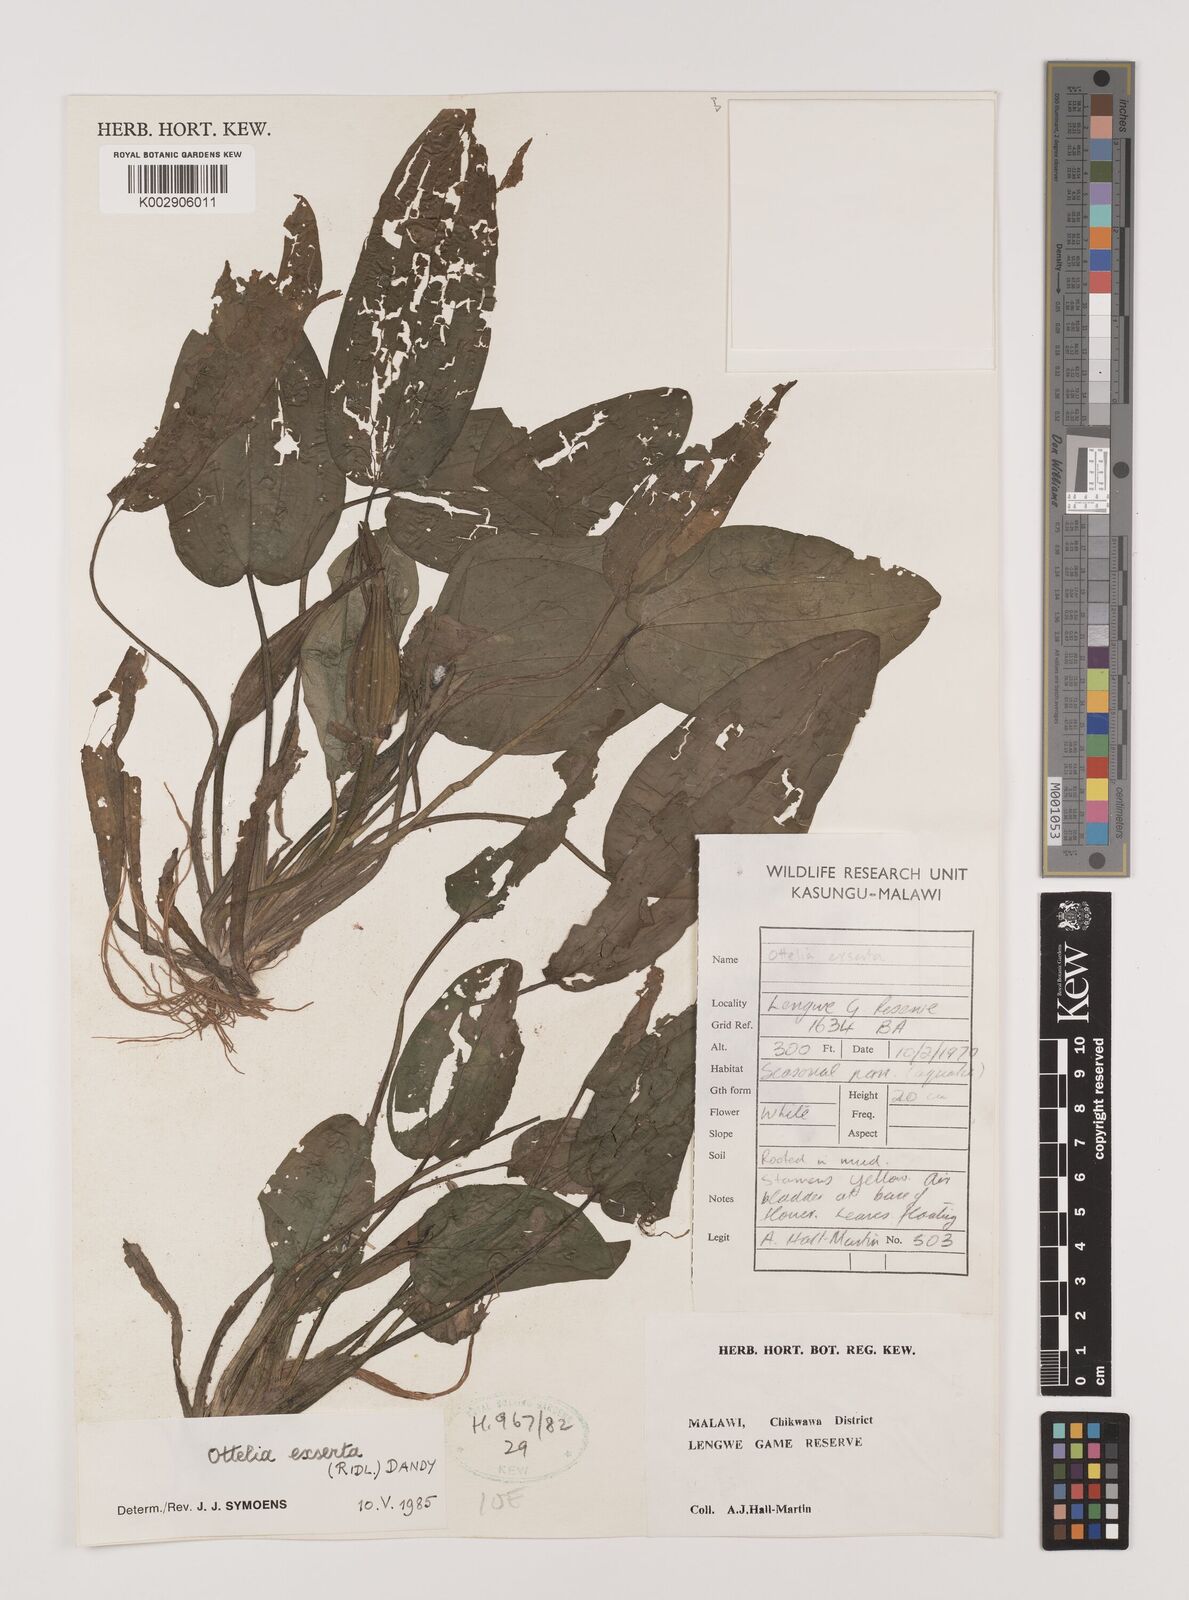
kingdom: Plantae
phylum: Tracheophyta
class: Liliopsida
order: Alismatales
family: Hydrocharitaceae
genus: Ottelia
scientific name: Ottelia exserta
